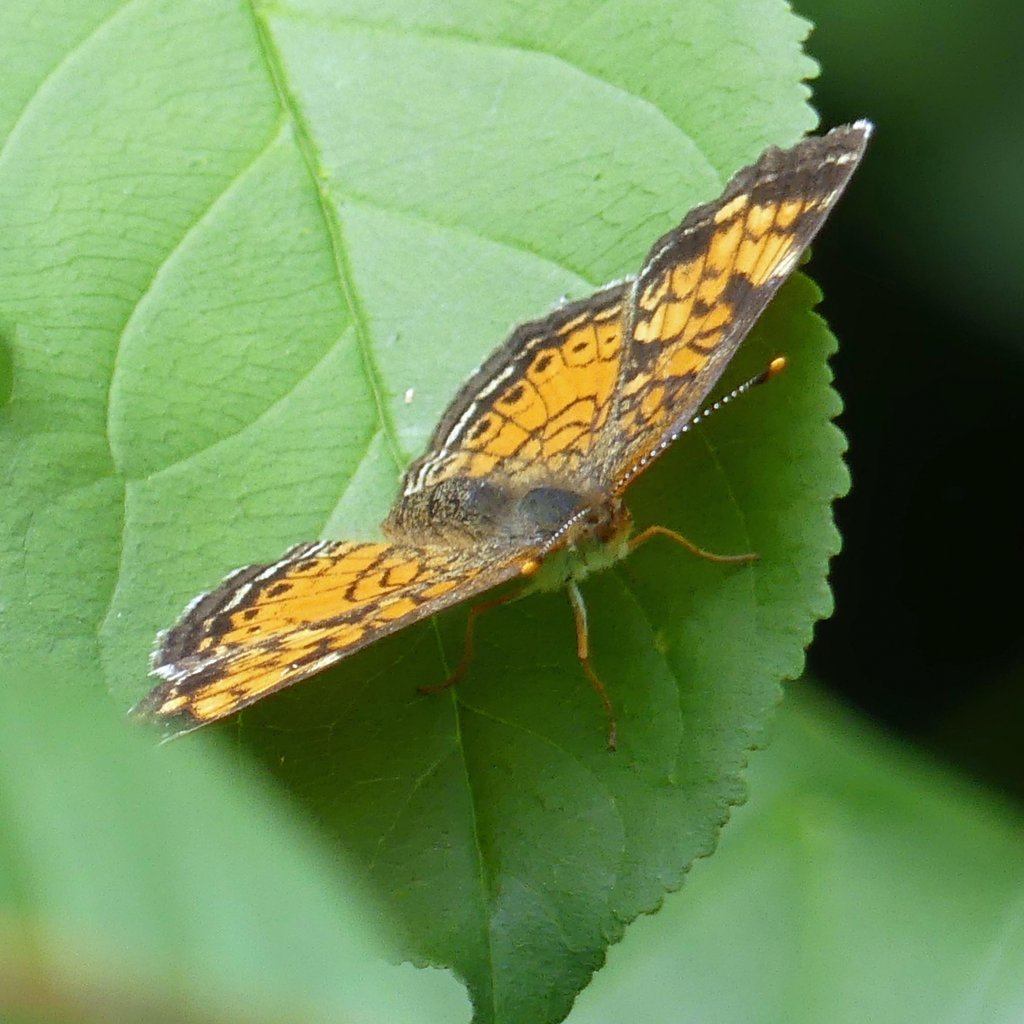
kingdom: Animalia
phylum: Arthropoda
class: Insecta
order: Lepidoptera
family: Nymphalidae
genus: Phyciodes
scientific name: Phyciodes tharos
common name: Northern Crescent
